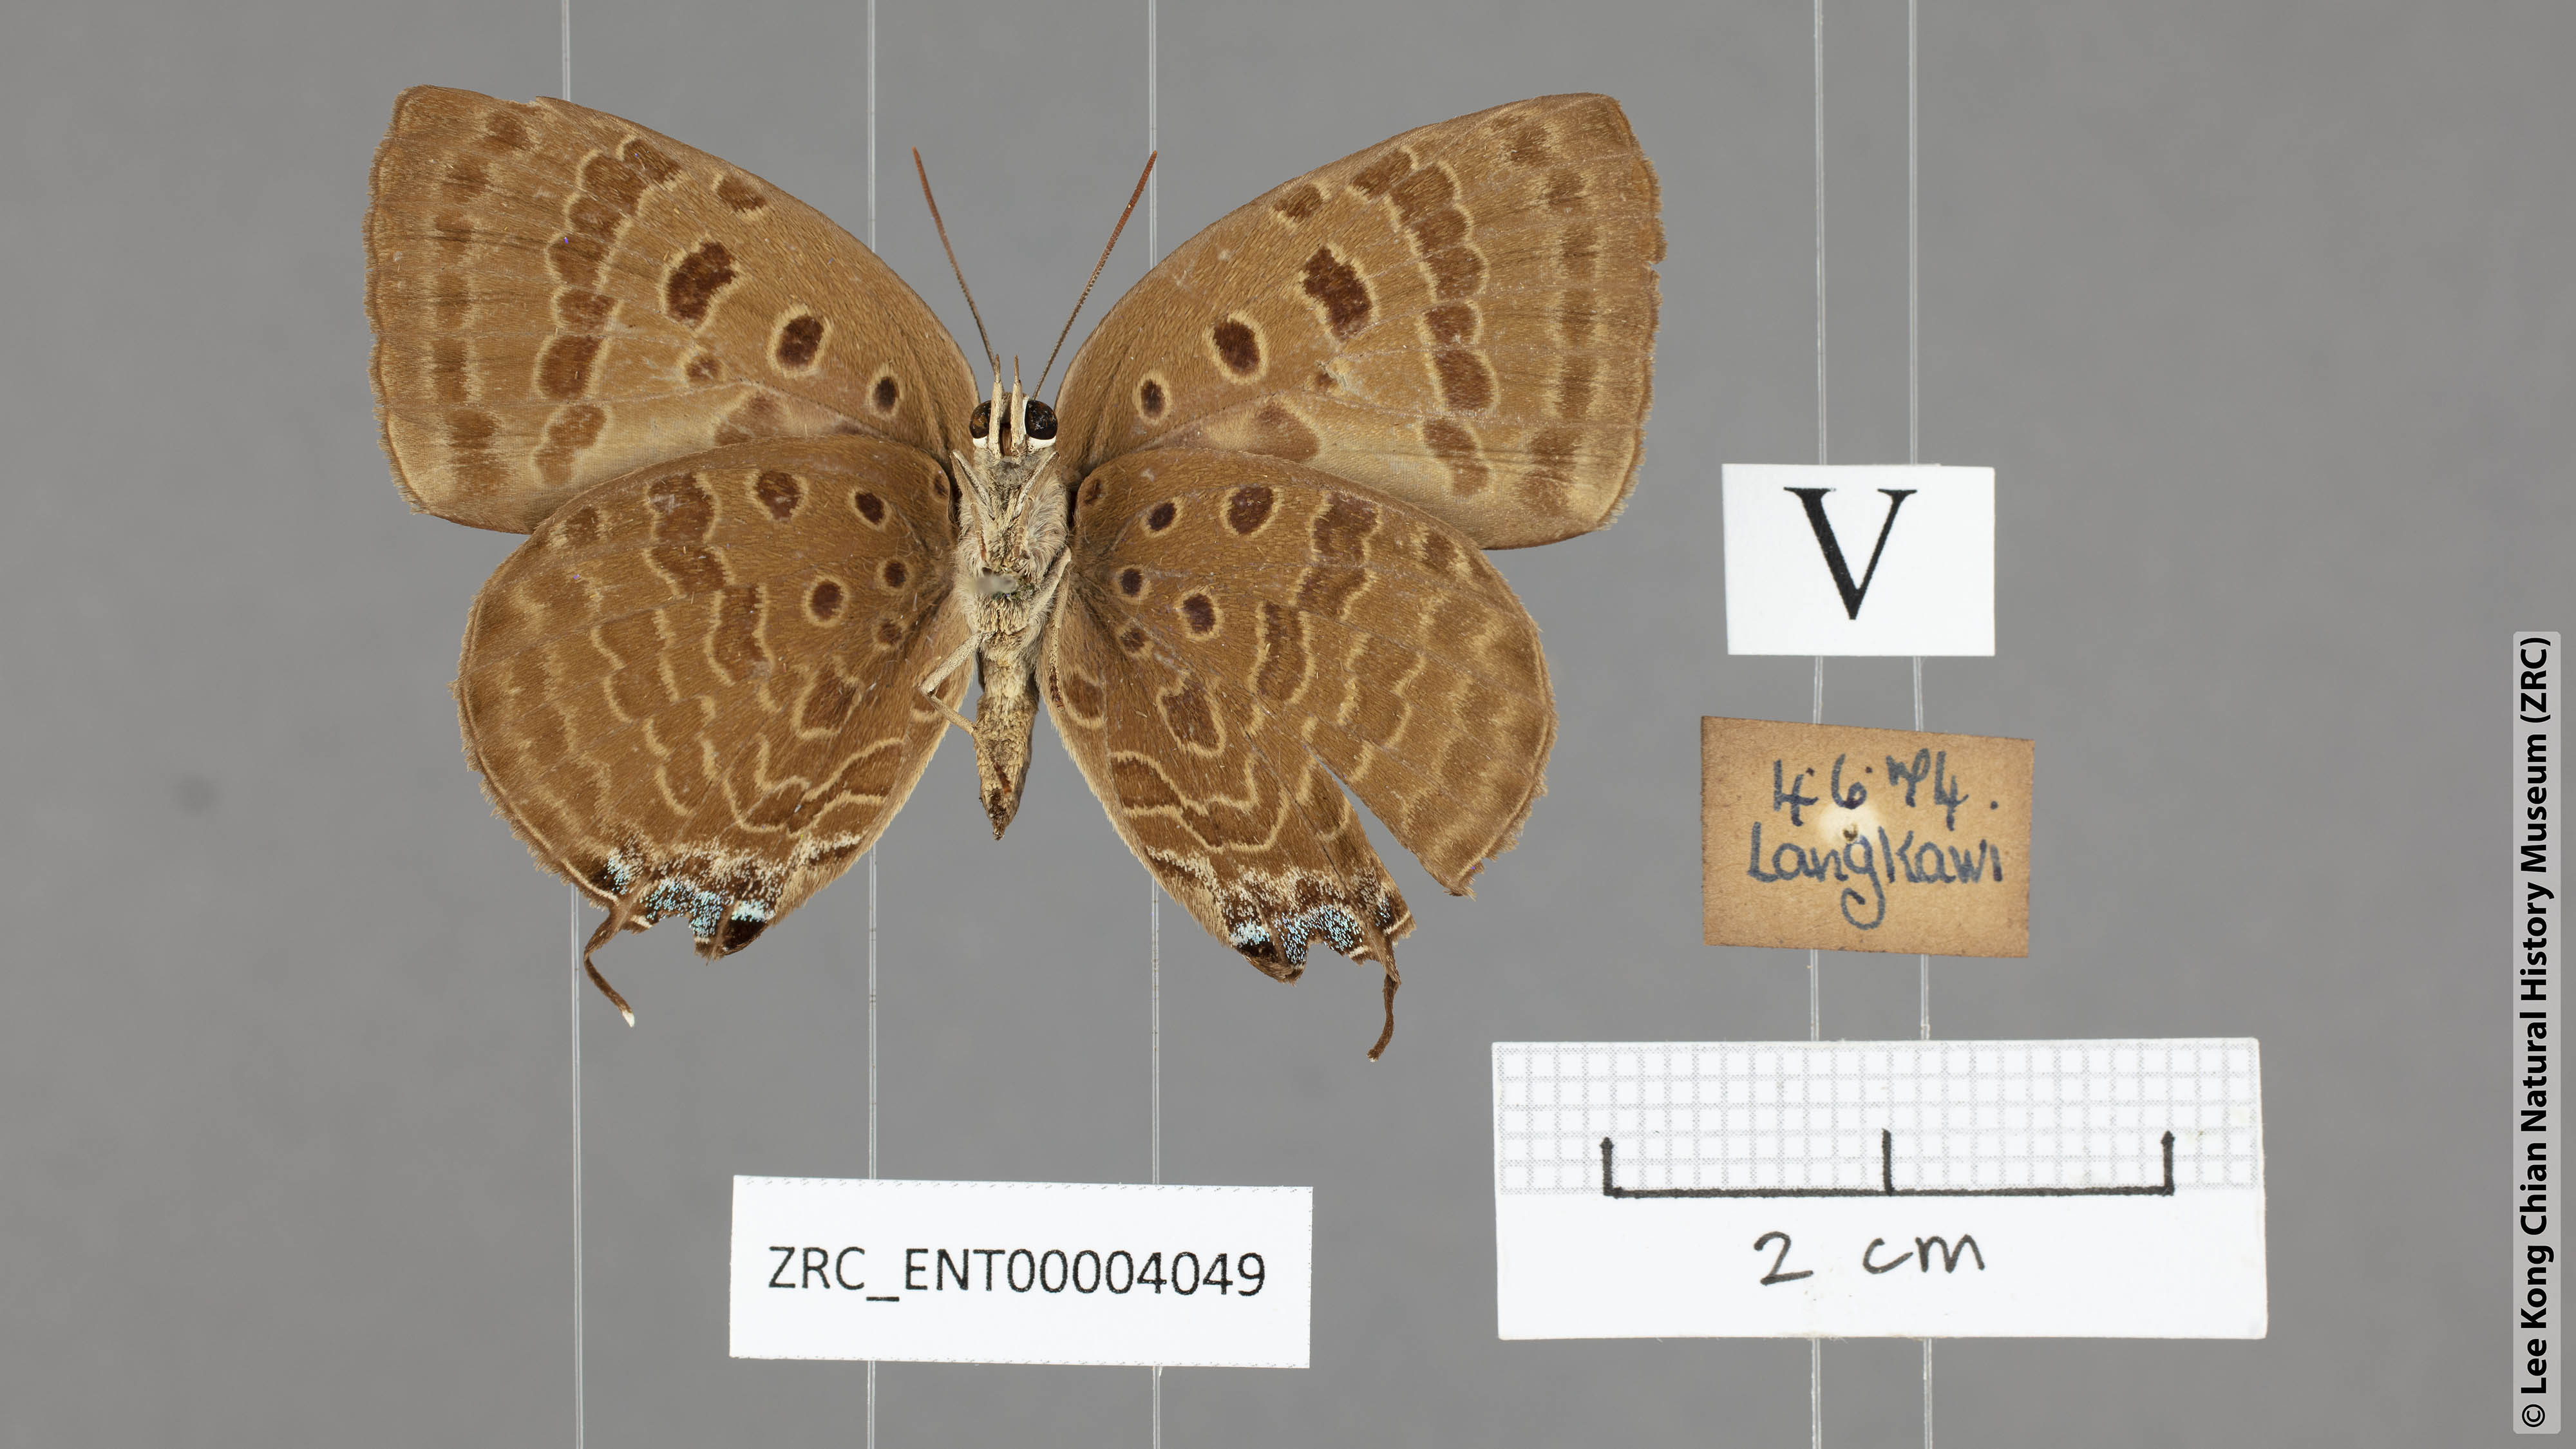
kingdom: Animalia
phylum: Arthropoda
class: Insecta
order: Lepidoptera
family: Lycaenidae
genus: Arhopala
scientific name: Arhopala
